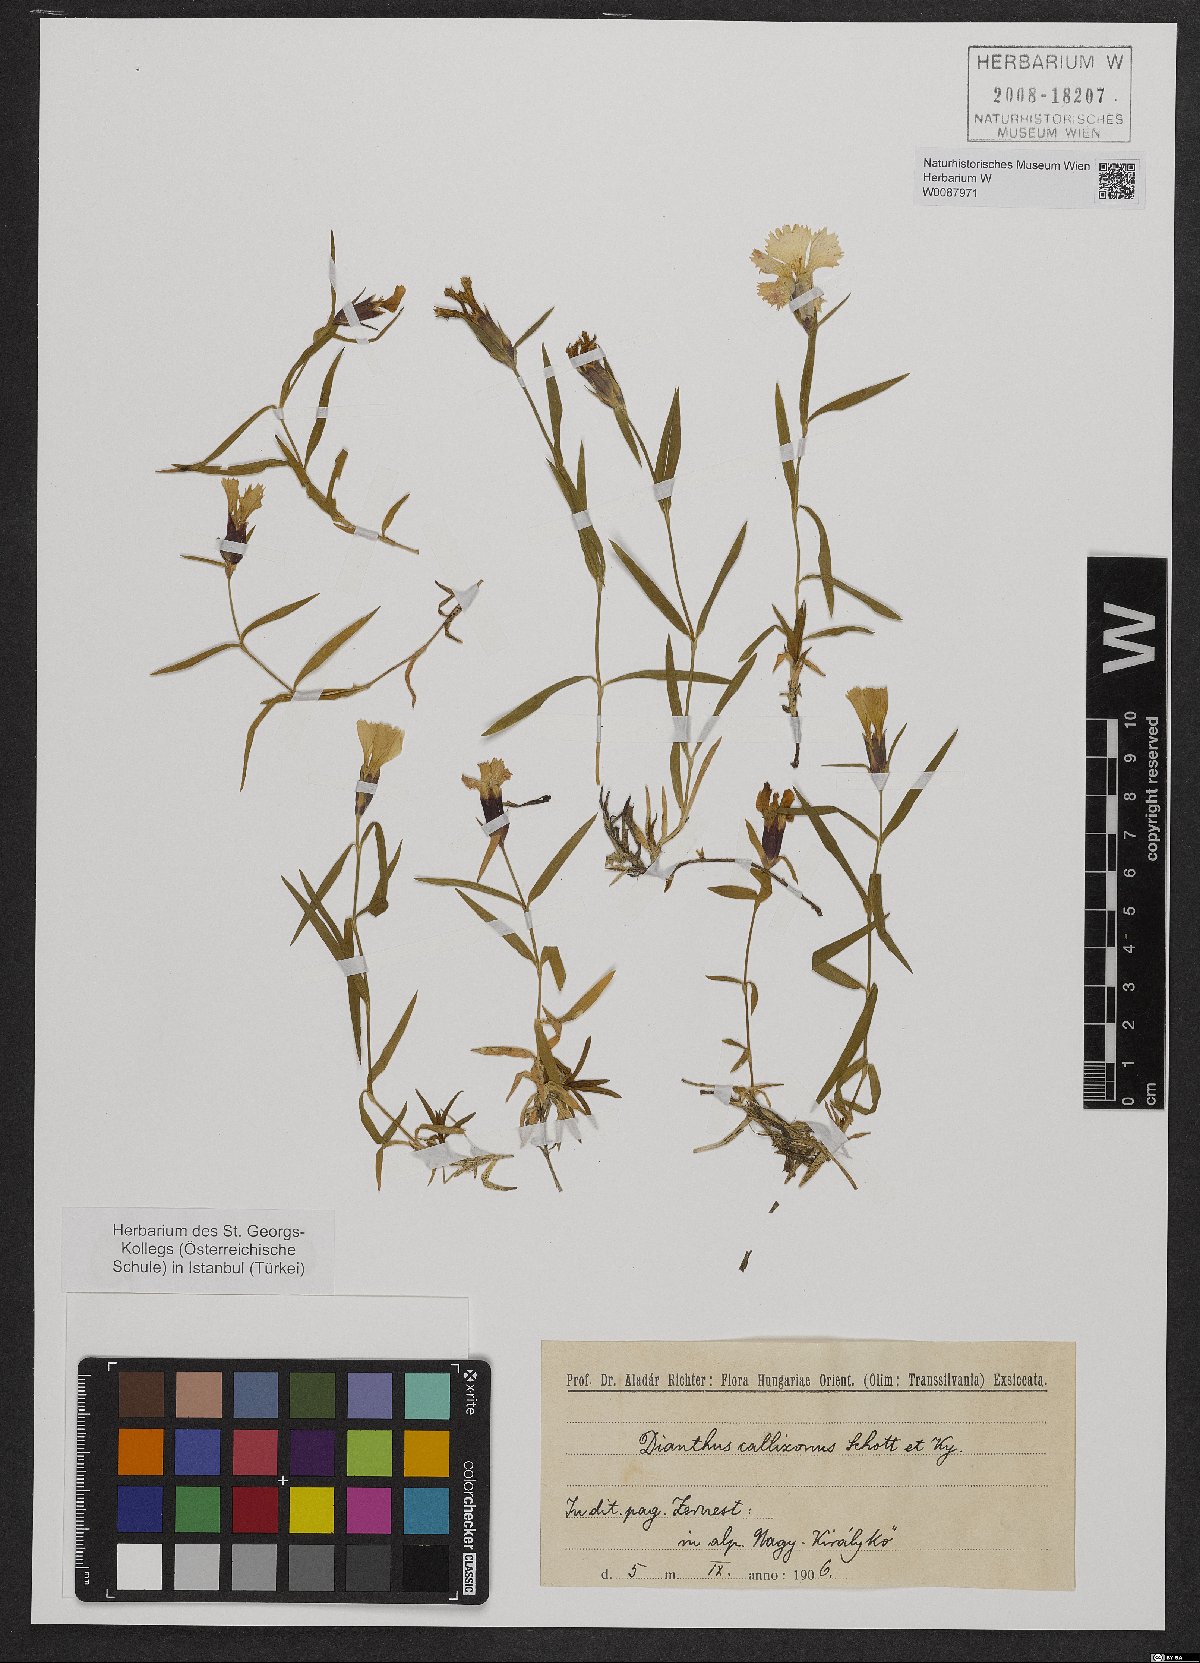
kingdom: Plantae
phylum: Tracheophyta
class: Magnoliopsida
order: Caryophyllales
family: Caryophyllaceae
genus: Dianthus
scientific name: Dianthus callizonus
